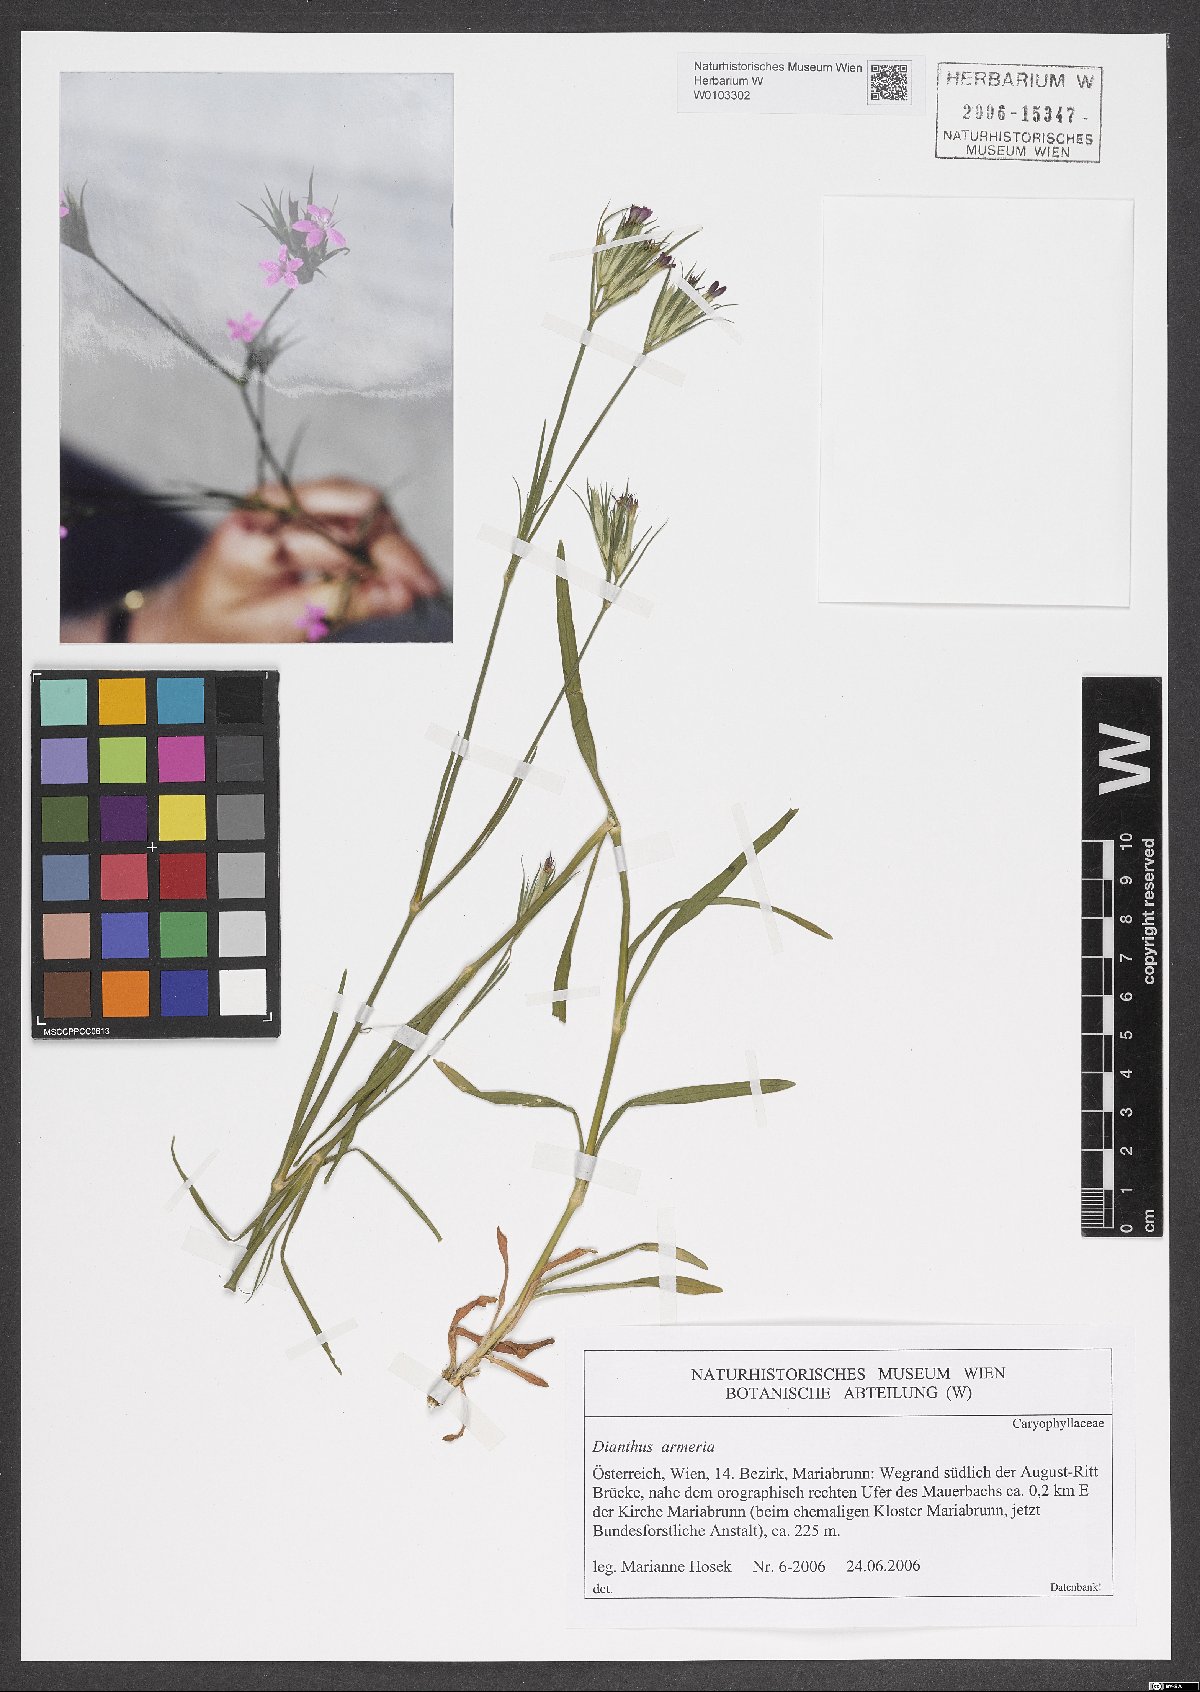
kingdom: Plantae
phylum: Tracheophyta
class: Magnoliopsida
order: Caryophyllales
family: Caryophyllaceae
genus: Dianthus
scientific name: Dianthus armeria
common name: Deptford pink
